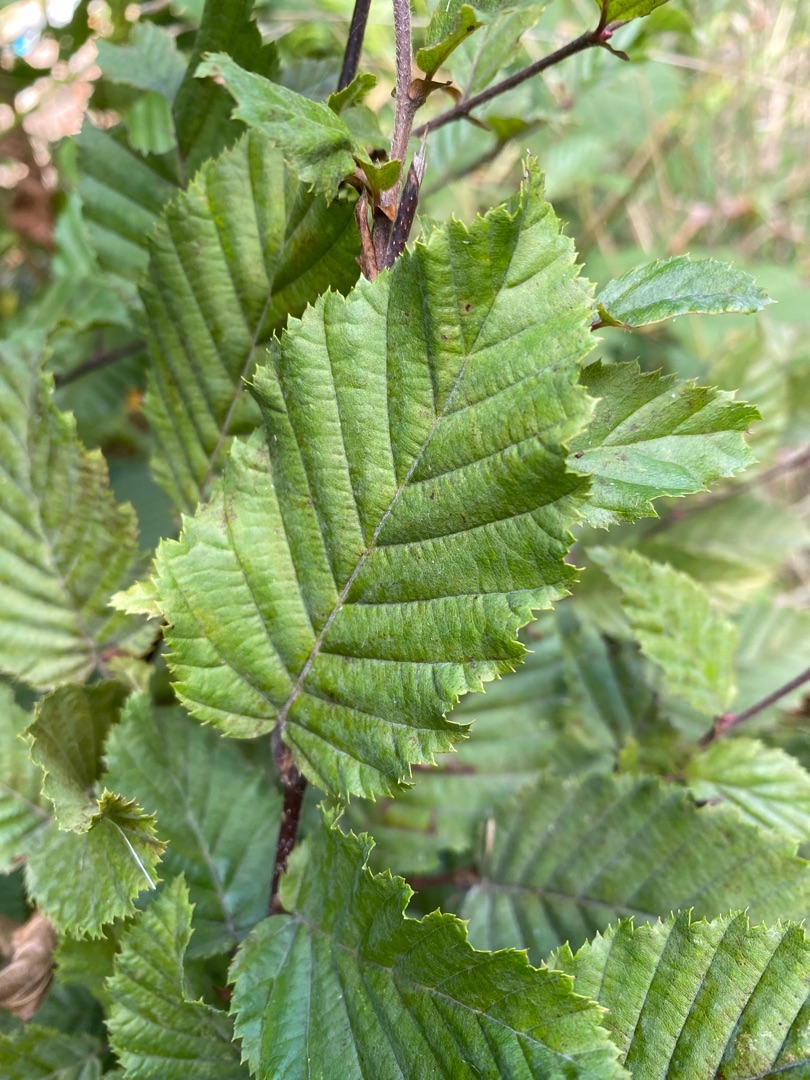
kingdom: Plantae
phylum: Tracheophyta
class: Magnoliopsida
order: Fagales
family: Betulaceae
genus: Carpinus
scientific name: Carpinus betulus
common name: Avnbøg
